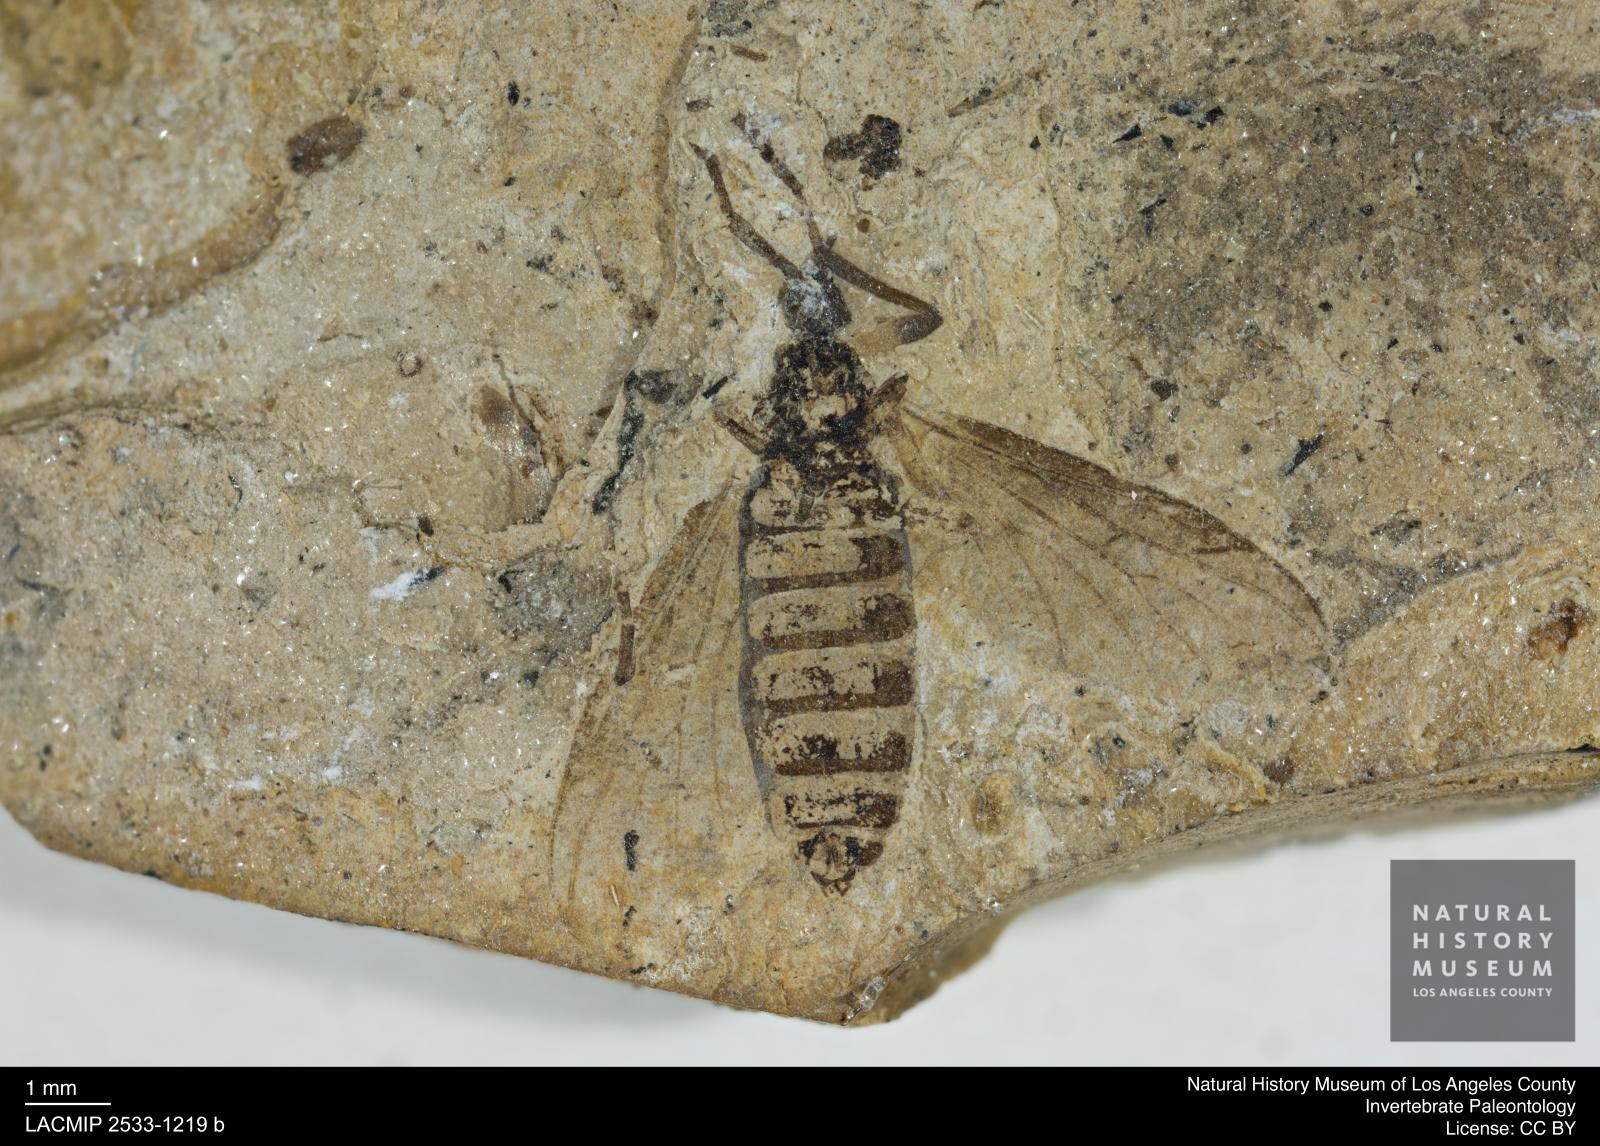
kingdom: Animalia
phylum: Arthropoda
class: Insecta
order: Diptera
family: Bibionidae
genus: Plecia
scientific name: Plecia hypogaea
